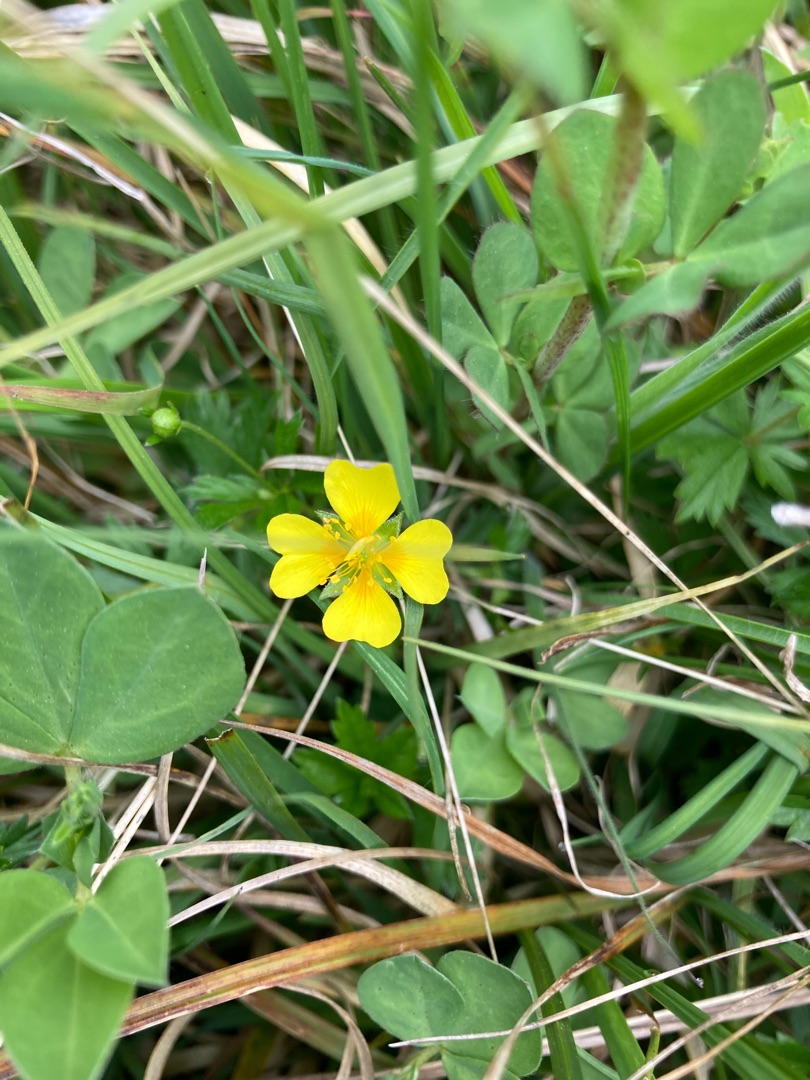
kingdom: Plantae
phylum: Tracheophyta
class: Magnoliopsida
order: Rosales
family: Rosaceae
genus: Potentilla
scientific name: Potentilla erecta
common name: Tormentil
